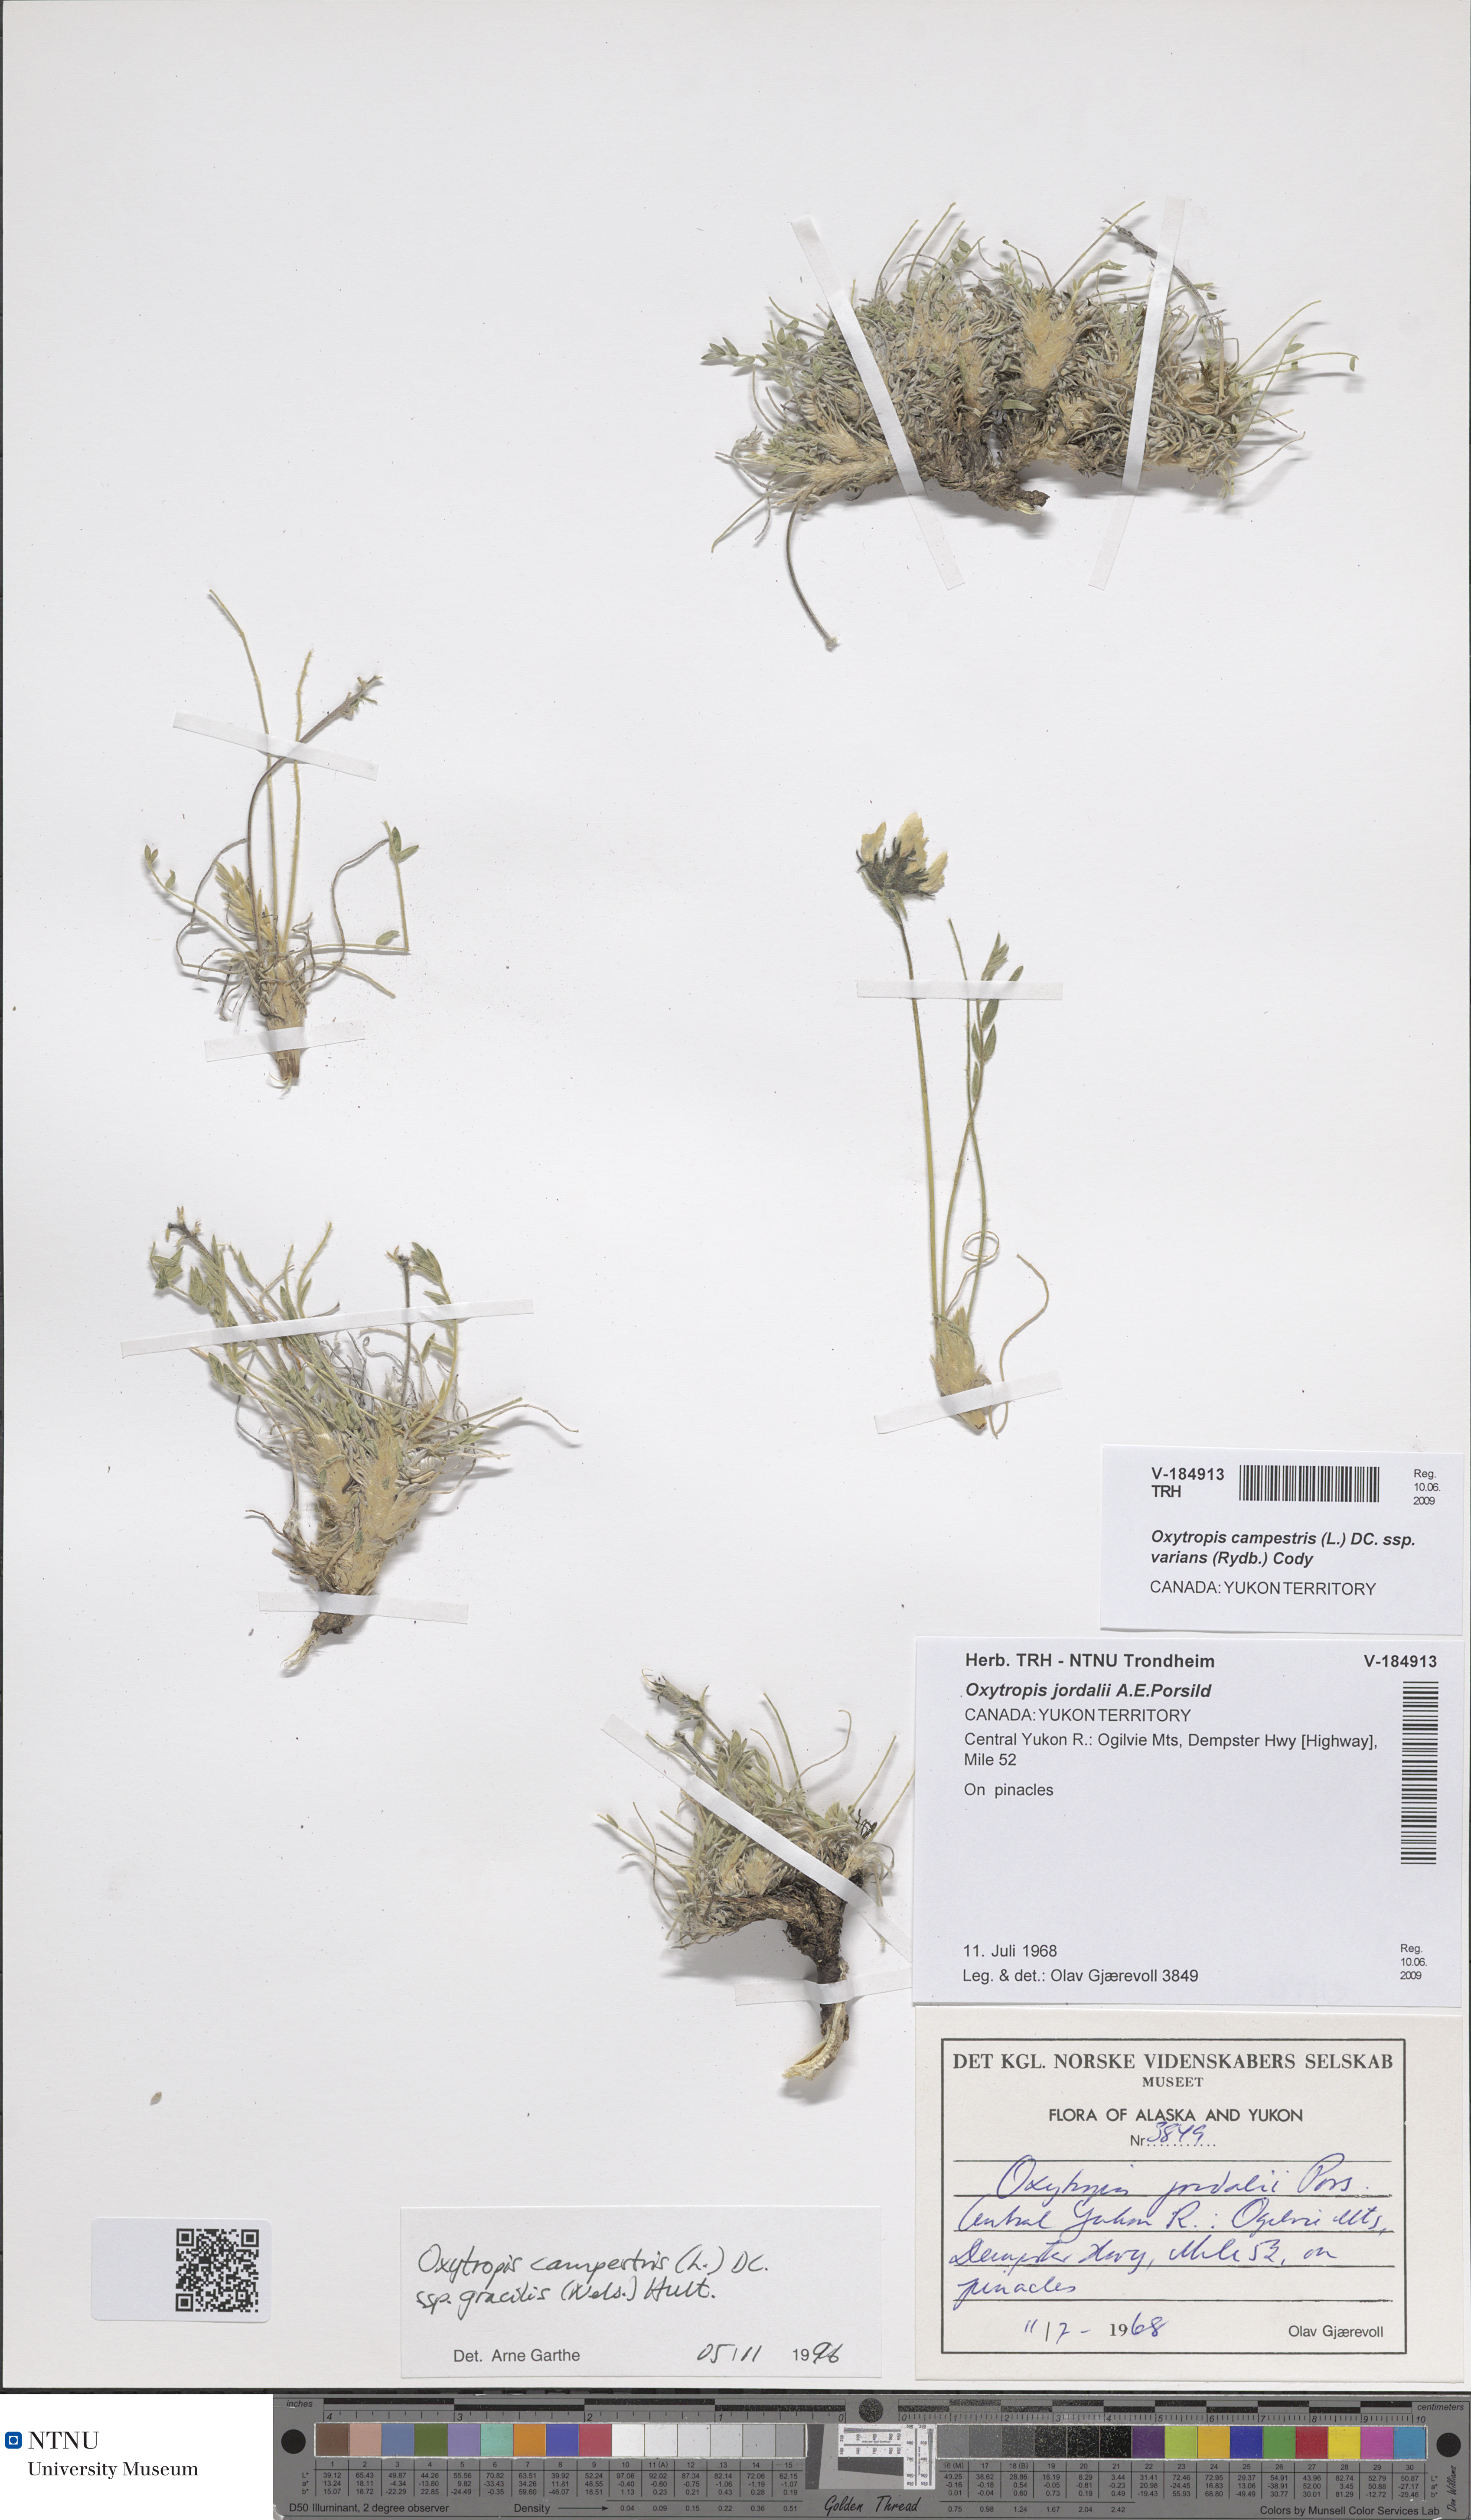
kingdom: Plantae
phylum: Tracheophyta
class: Magnoliopsida
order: Fabales
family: Fabaceae
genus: Oxytropis
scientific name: Oxytropis campestris
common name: Field locoweed
